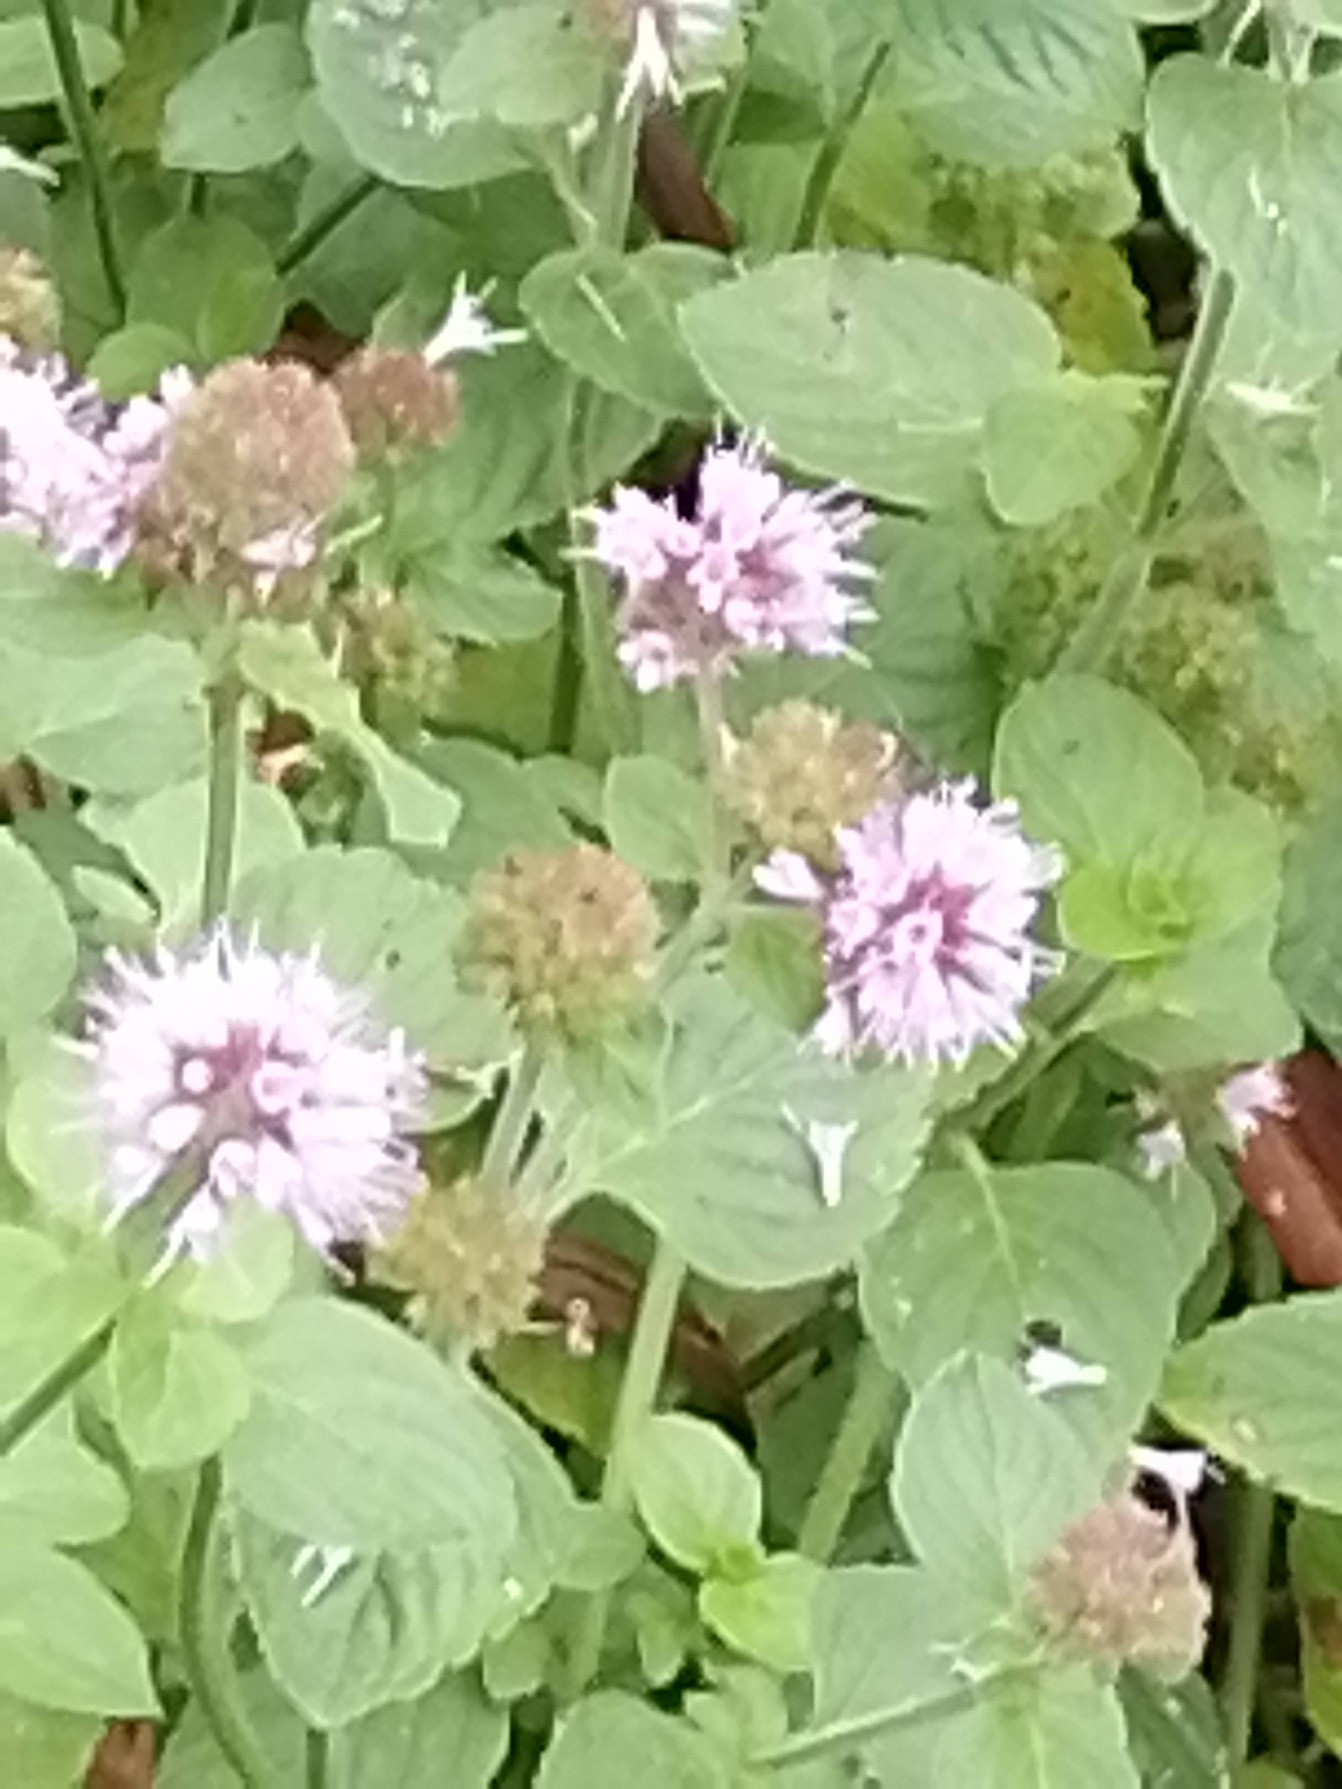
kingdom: Plantae
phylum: Tracheophyta
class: Magnoliopsida
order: Lamiales
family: Lamiaceae
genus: Mentha
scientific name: Mentha aquatica
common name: Vand-mynte
